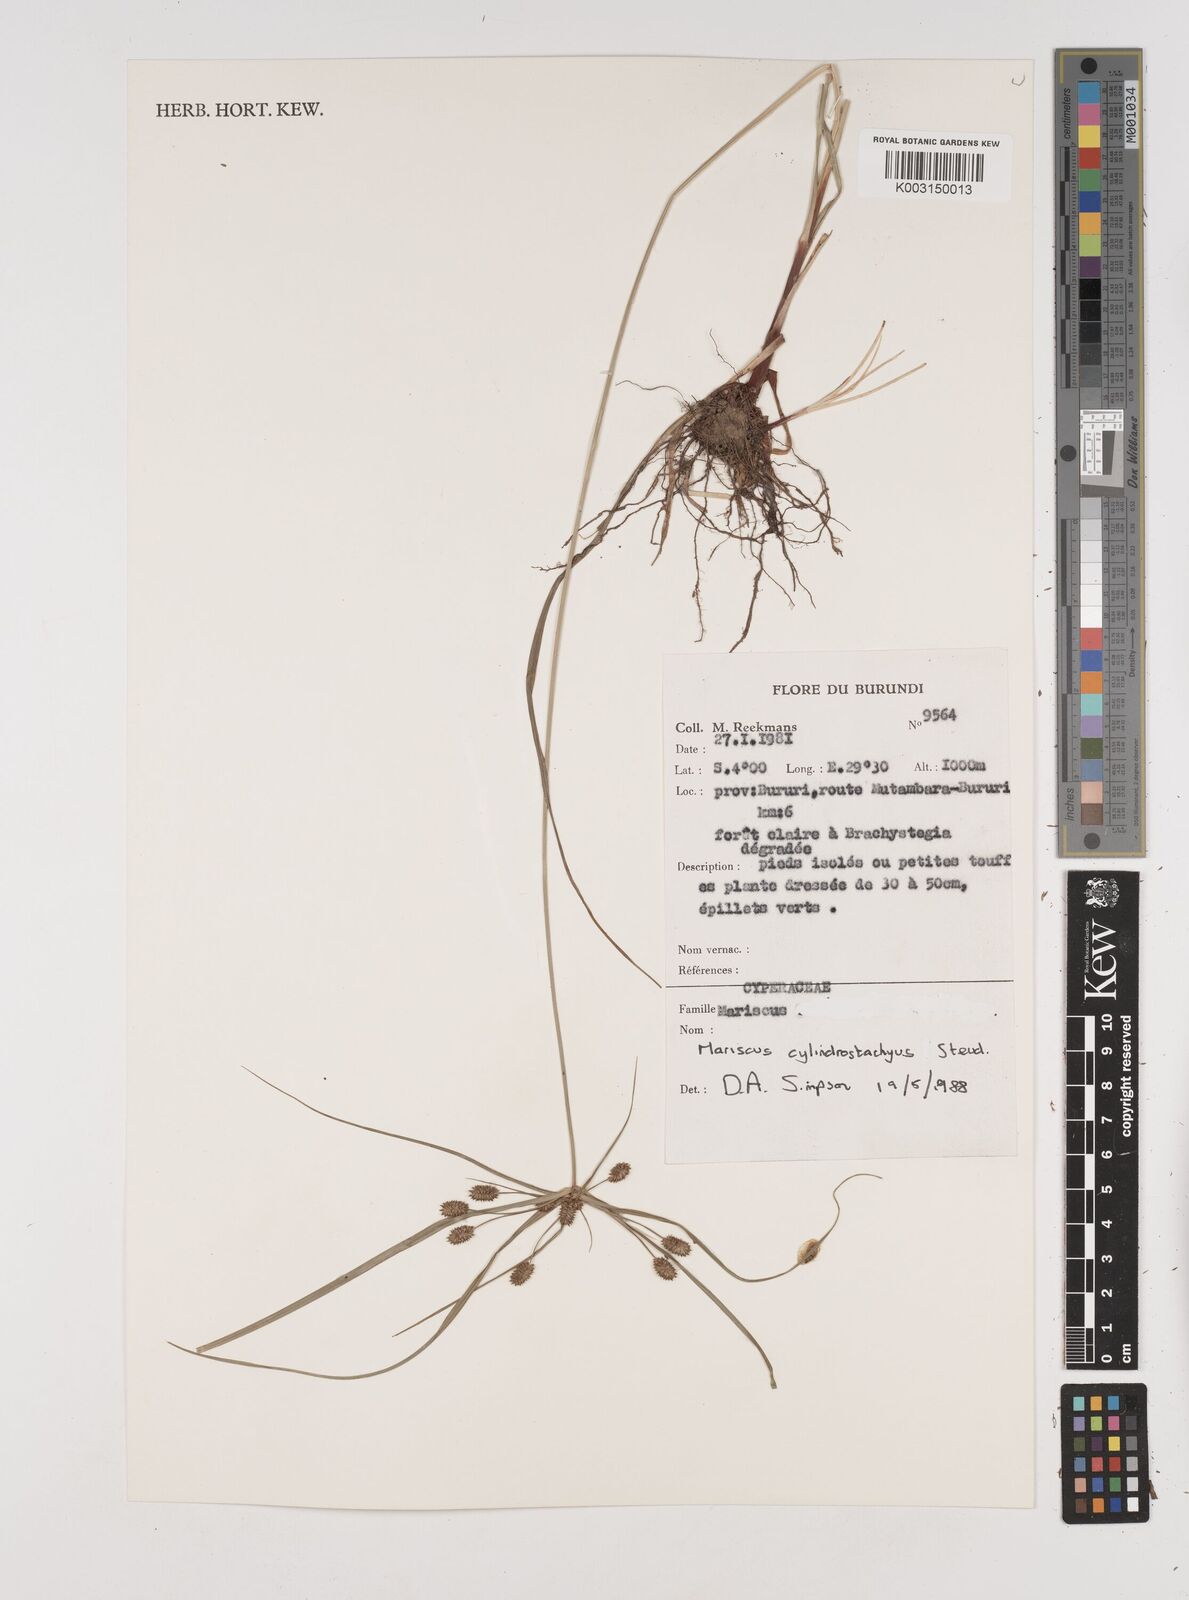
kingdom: Plantae
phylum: Tracheophyta
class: Liliopsida
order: Poales
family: Cyperaceae
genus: Cyperus
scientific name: Cyperus cyperoides
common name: Pacific island flat sedge
